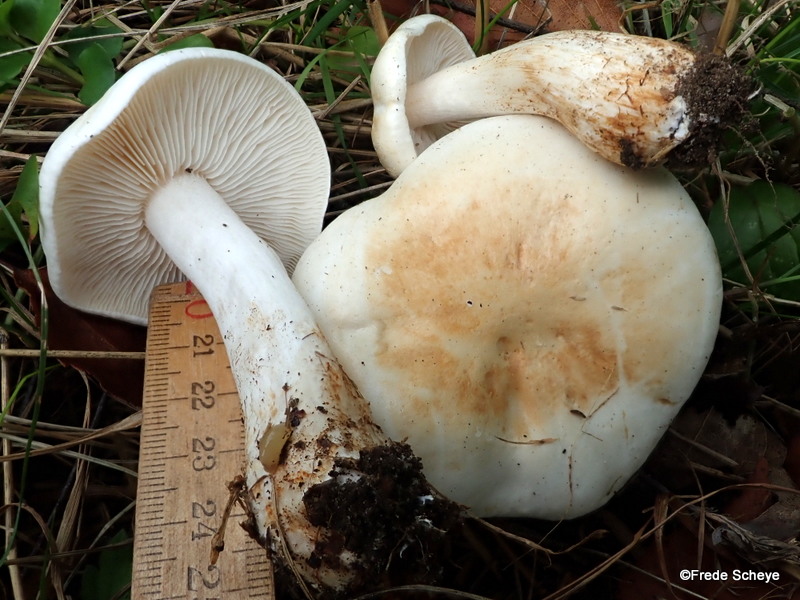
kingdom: Fungi
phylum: Basidiomycota
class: Agaricomycetes
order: Agaricales
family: Tricholomataceae
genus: Tricholoma
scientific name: Tricholoma stiparophyllum
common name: hvid ridderhat
